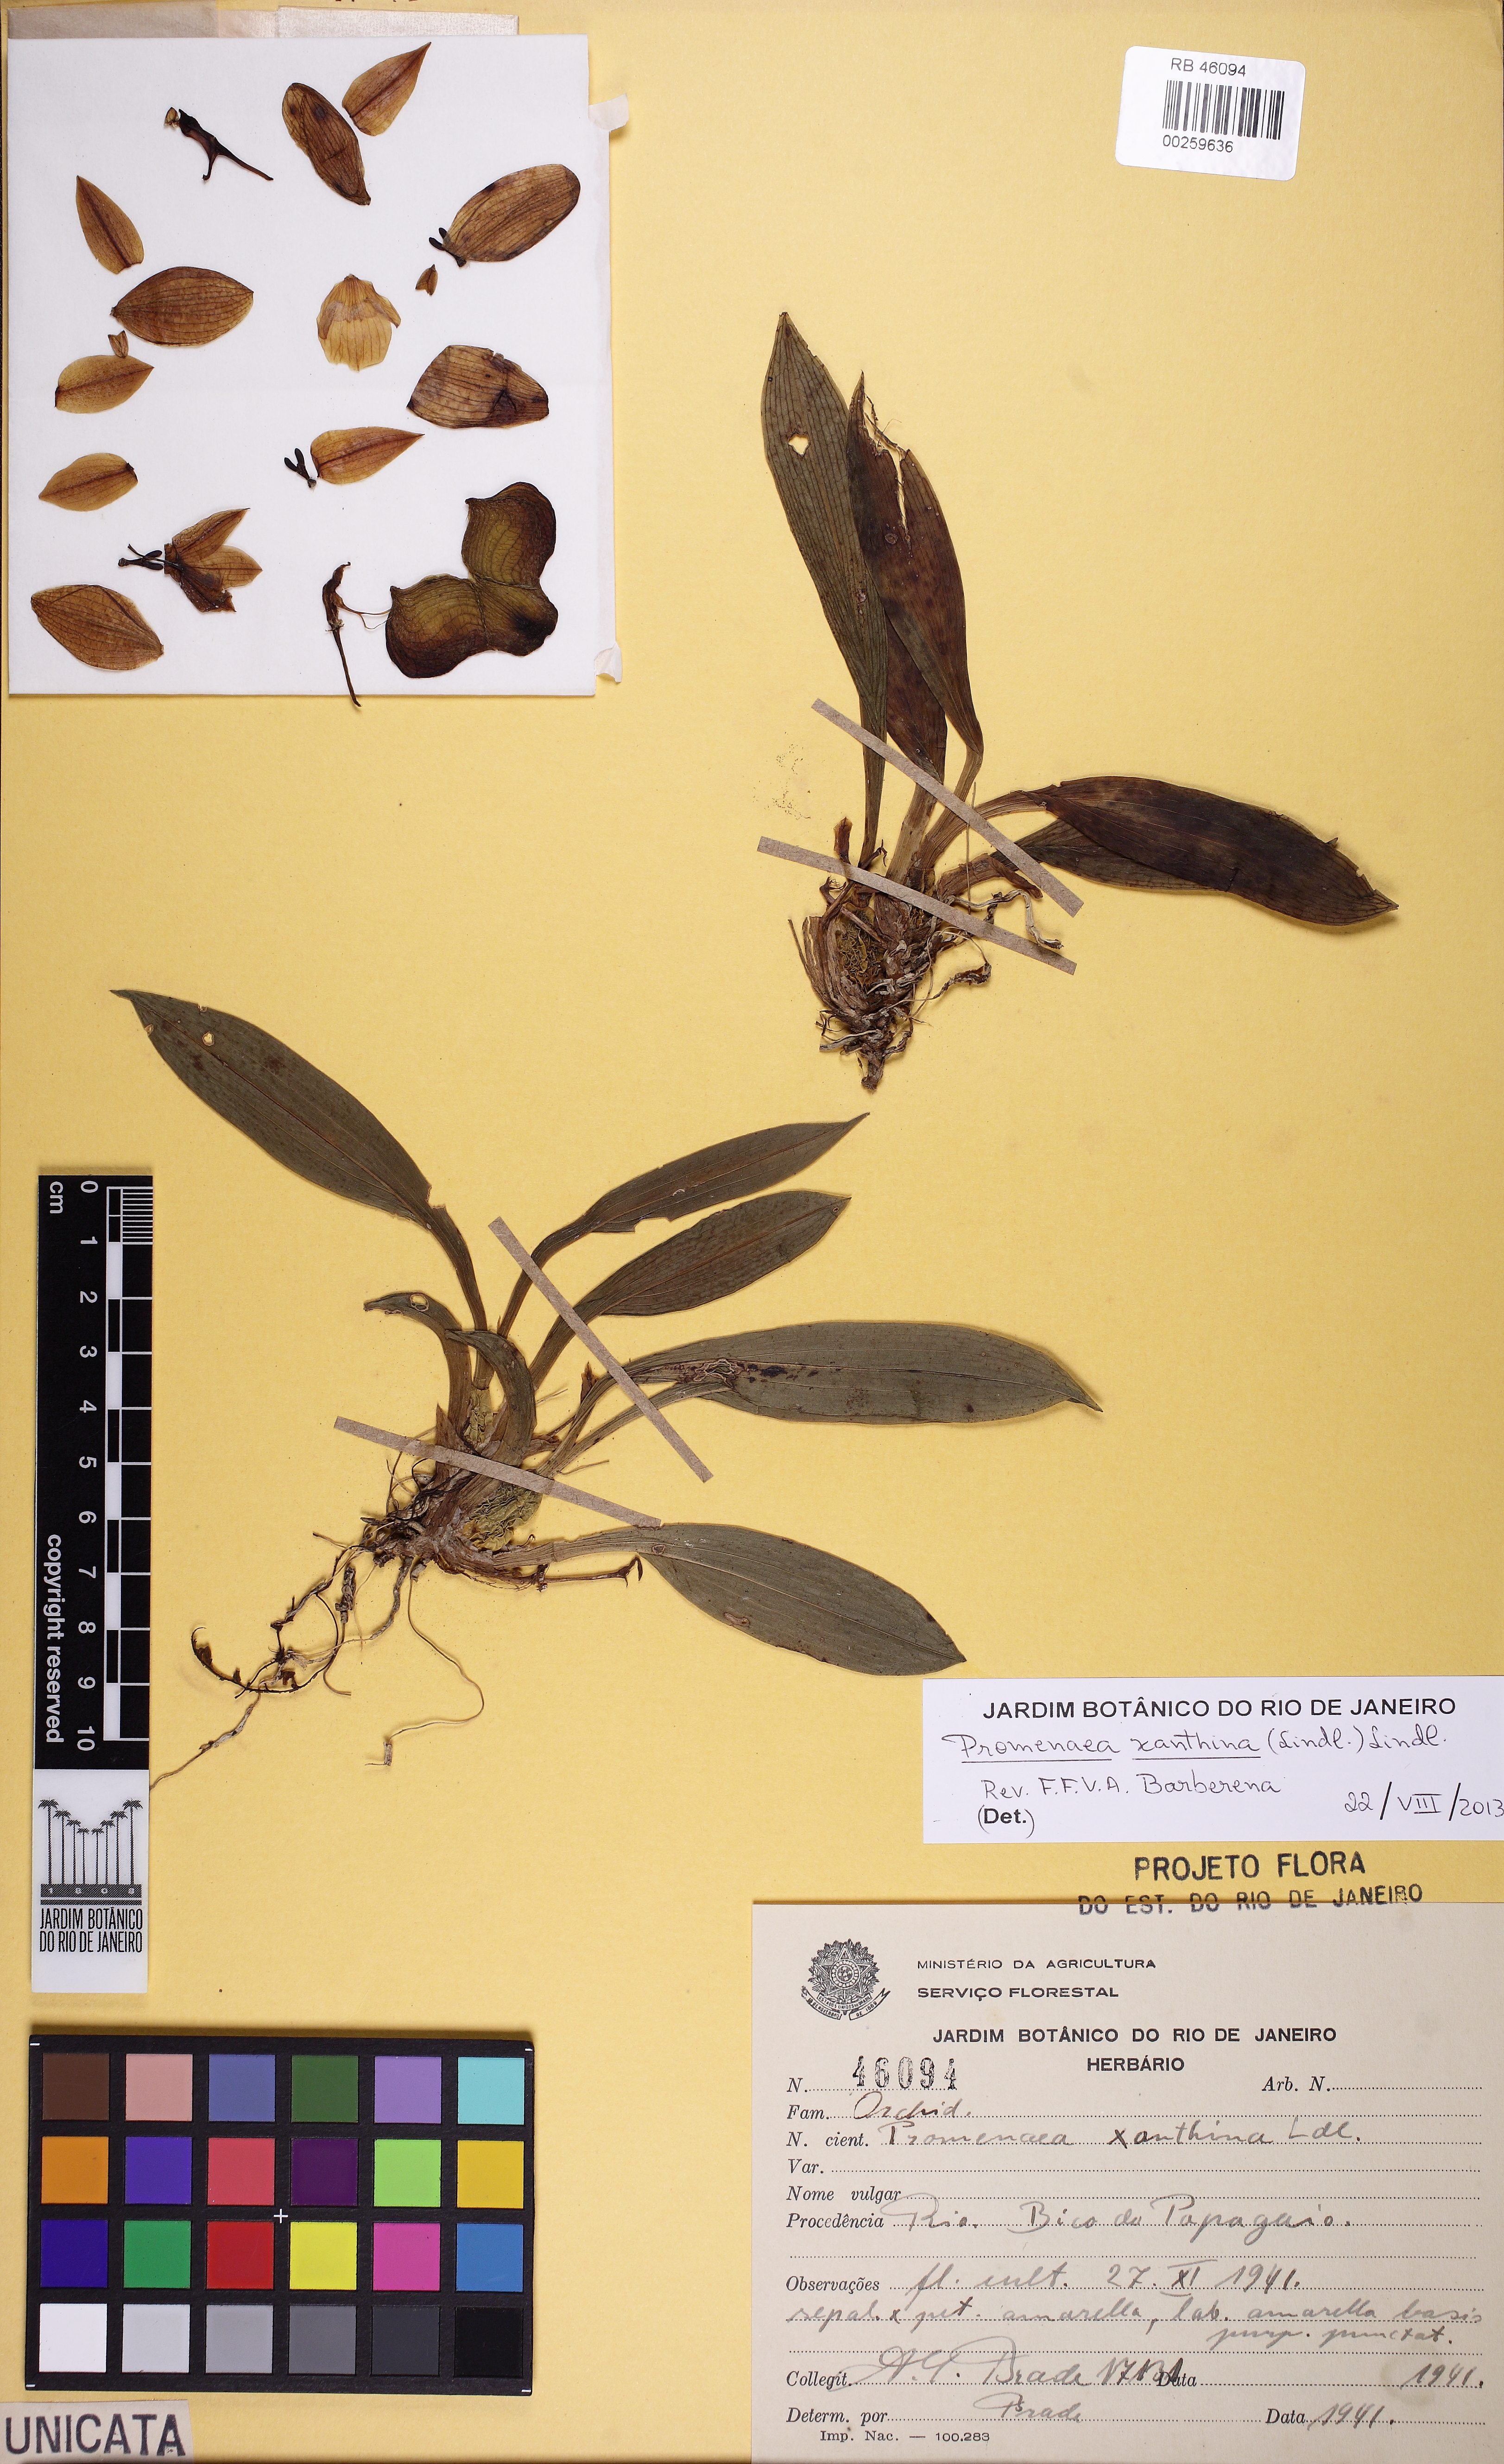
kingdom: Plantae
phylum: Tracheophyta
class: Liliopsida
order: Asparagales
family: Orchidaceae
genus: Promenaea
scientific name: Promenaea xanthina
